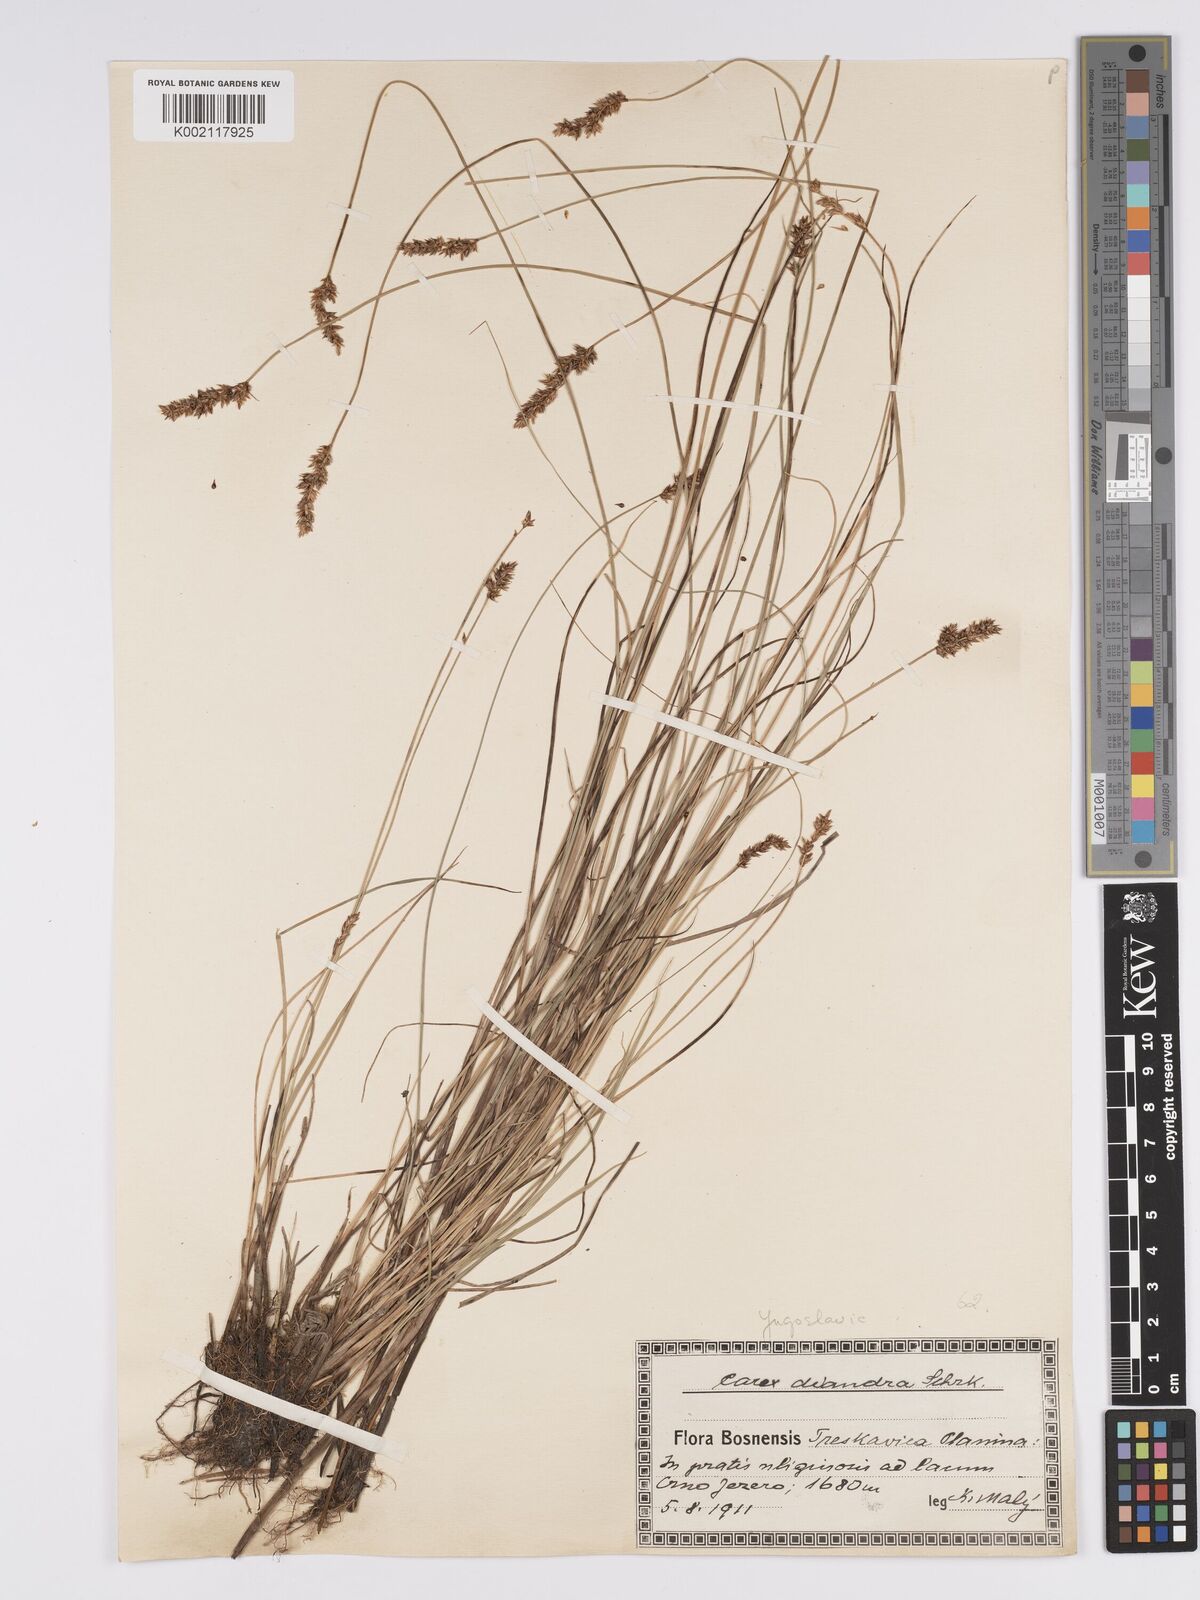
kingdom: Plantae
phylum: Tracheophyta
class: Liliopsida
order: Poales
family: Cyperaceae
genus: Carex
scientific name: Carex diandra
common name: Lesser tussock-sedge
